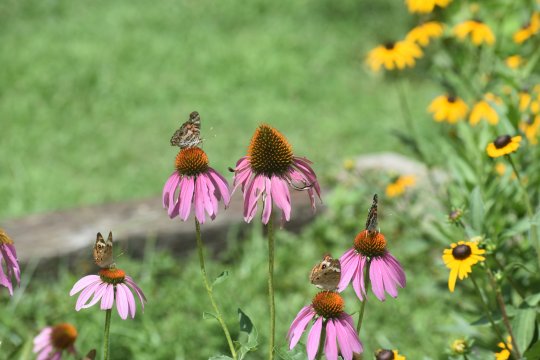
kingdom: Animalia
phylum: Arthropoda
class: Insecta
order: Lepidoptera
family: Nymphalidae
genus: Vanessa
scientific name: Vanessa virginiensis
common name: American Lady
